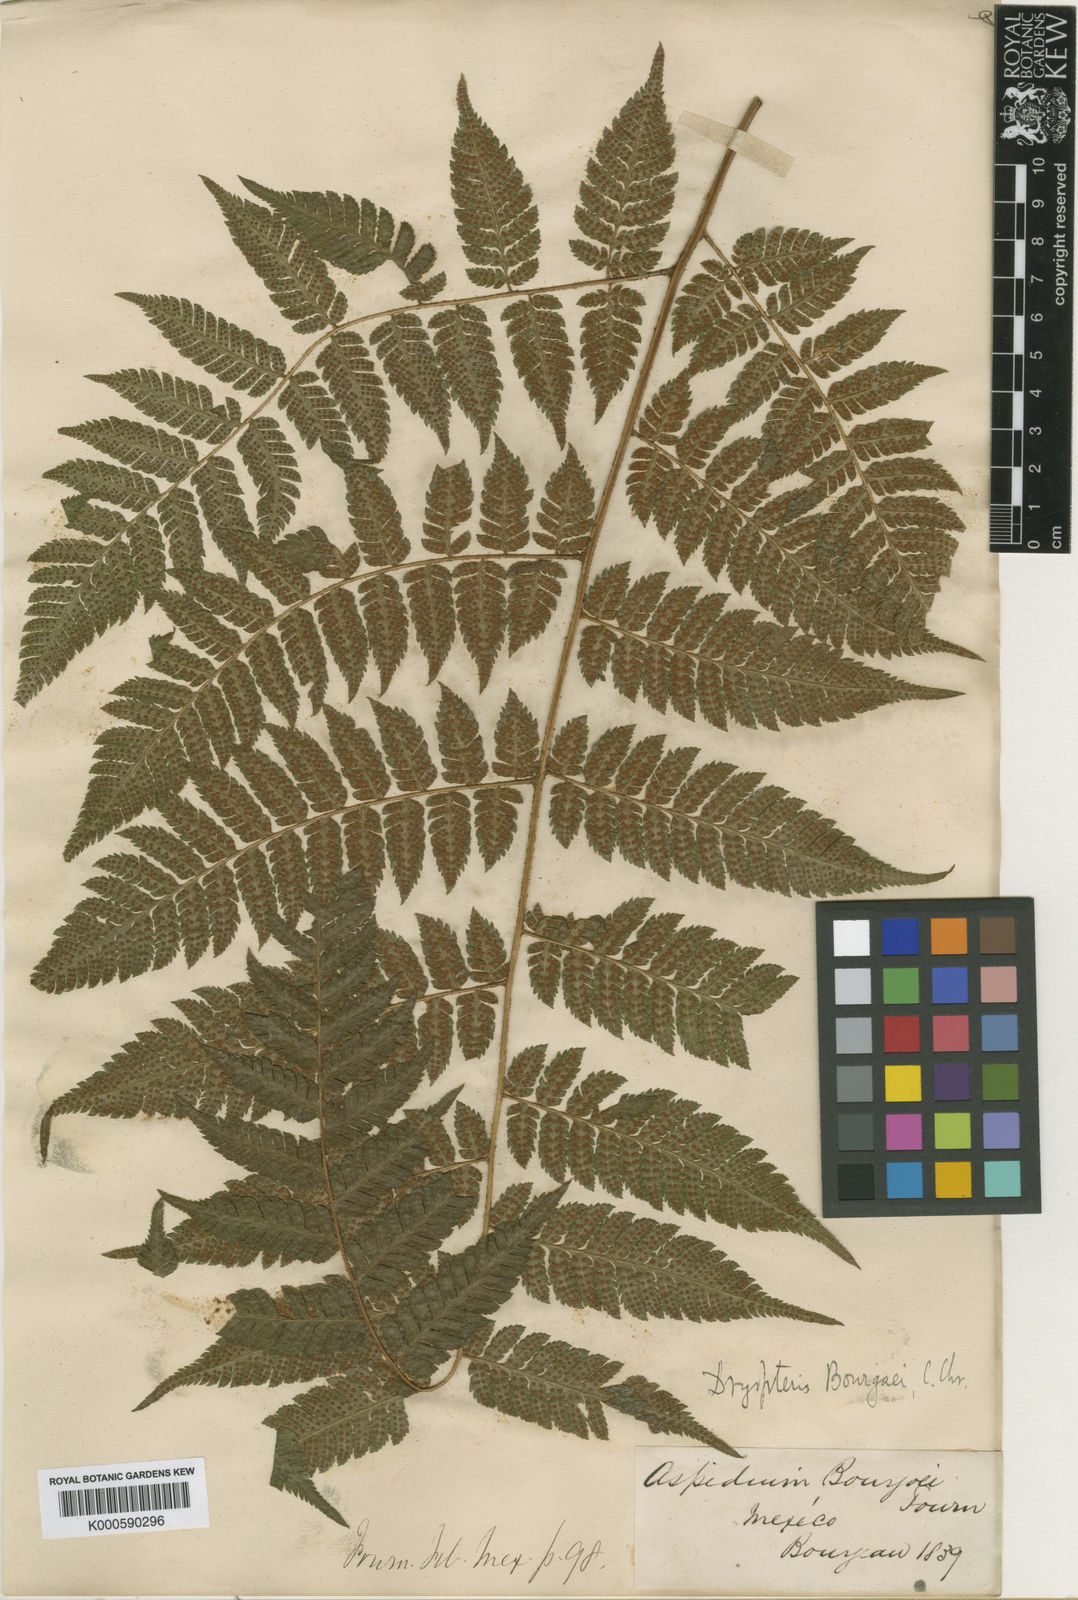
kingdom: Plantae
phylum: Tracheophyta
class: Polypodiopsida
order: Polypodiales
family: Dryopteridaceae
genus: Ctenitis
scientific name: Ctenitis equestris
